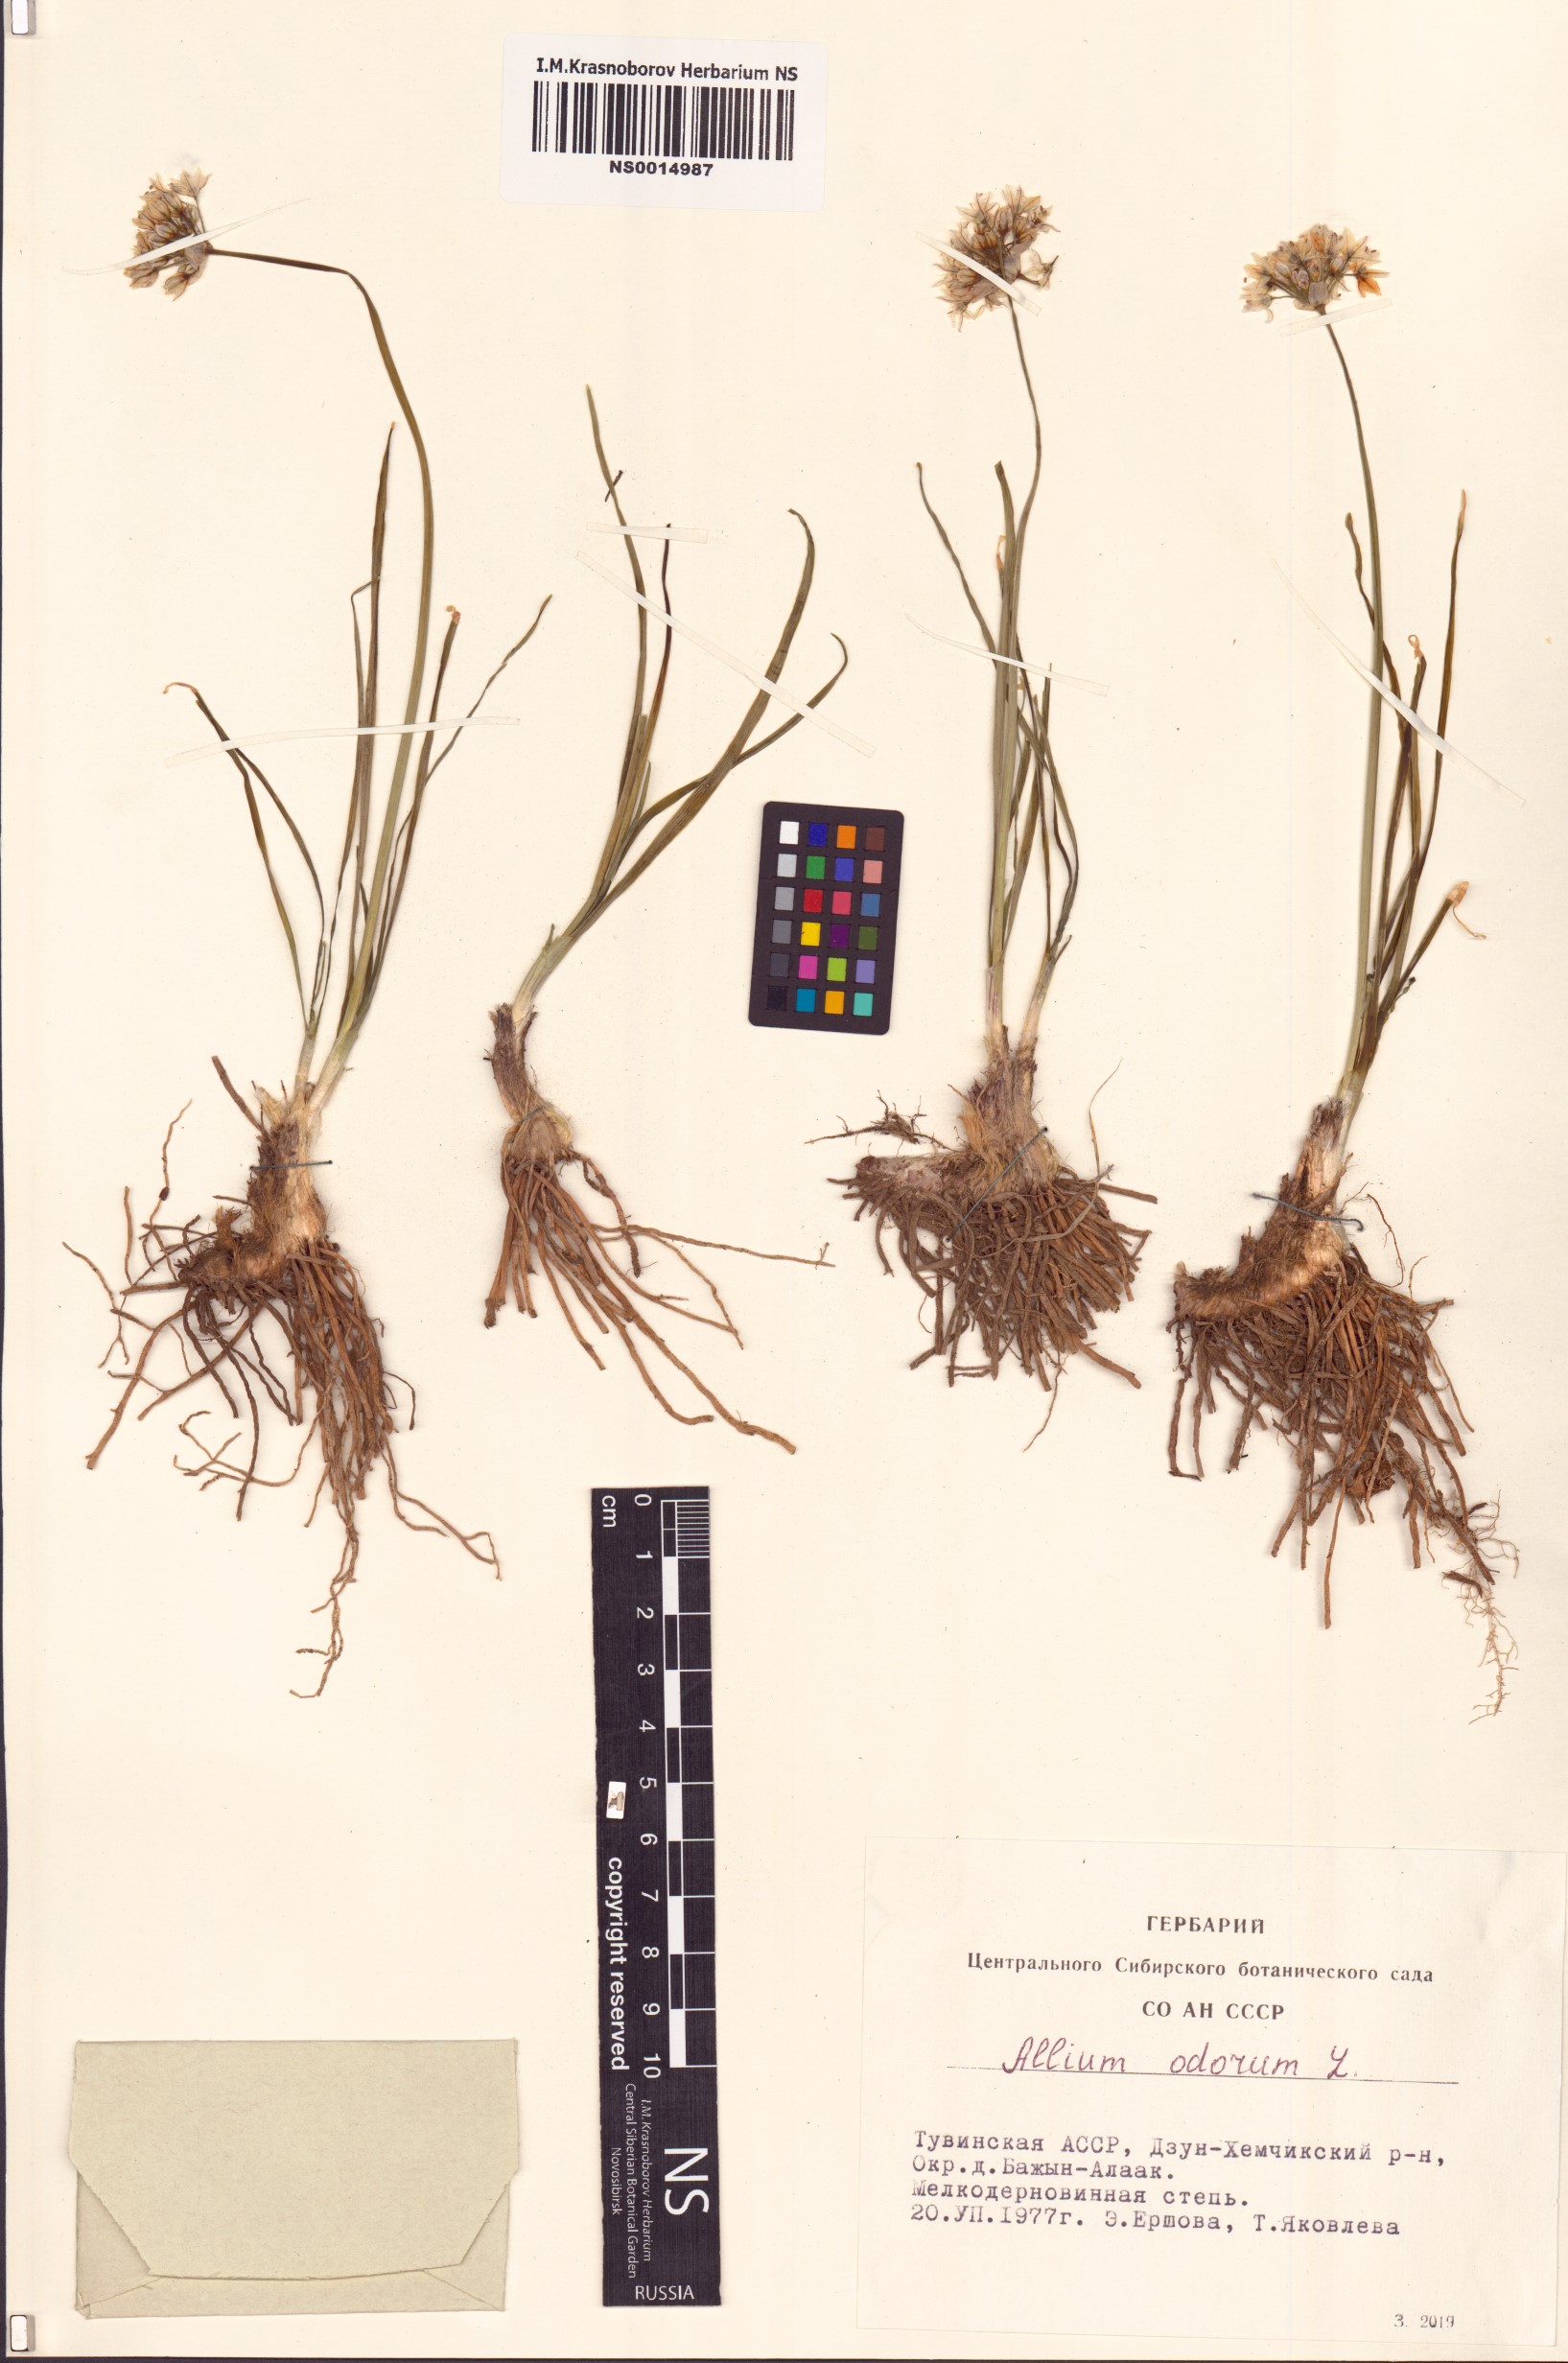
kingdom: Plantae
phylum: Tracheophyta
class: Liliopsida
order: Asparagales
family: Amaryllidaceae
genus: Allium
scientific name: Allium ramosum
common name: Fragrant garlic
